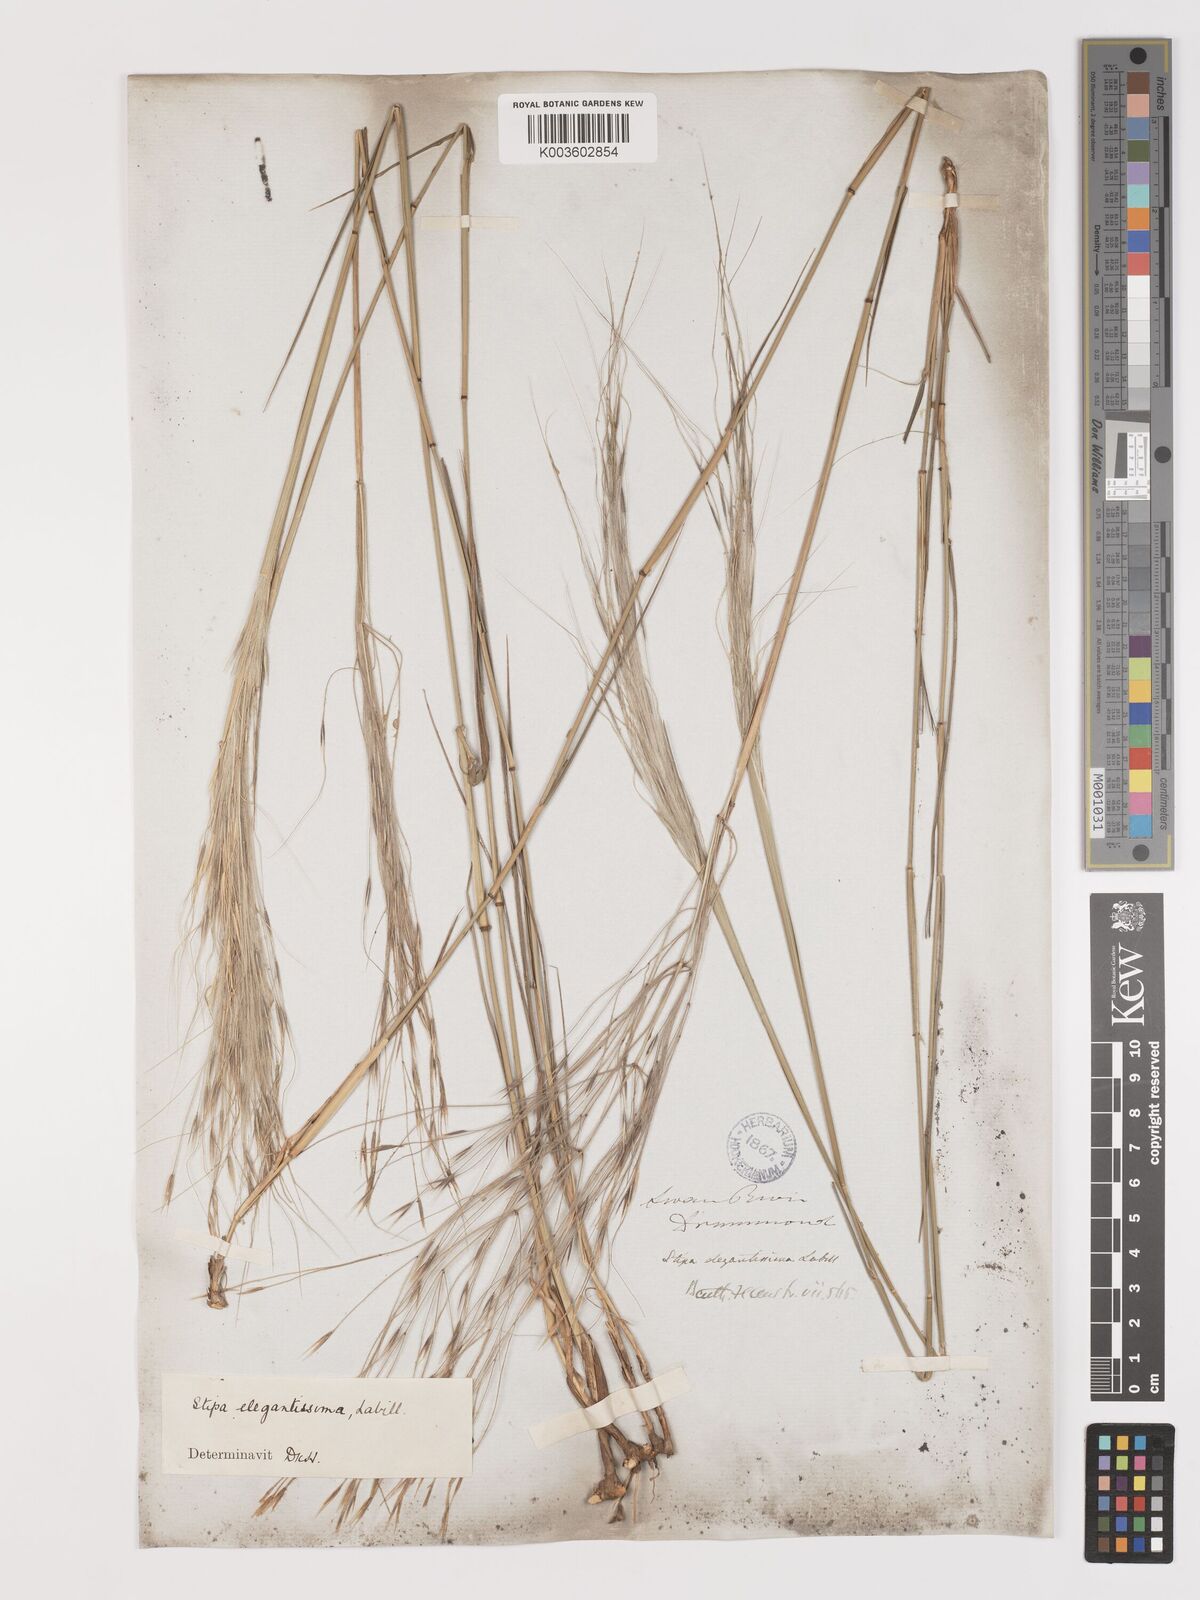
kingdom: Plantae
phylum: Tracheophyta
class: Liliopsida
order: Poales
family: Poaceae
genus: Austrostipa
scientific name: Austrostipa elegantissima
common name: Feather spear grass
